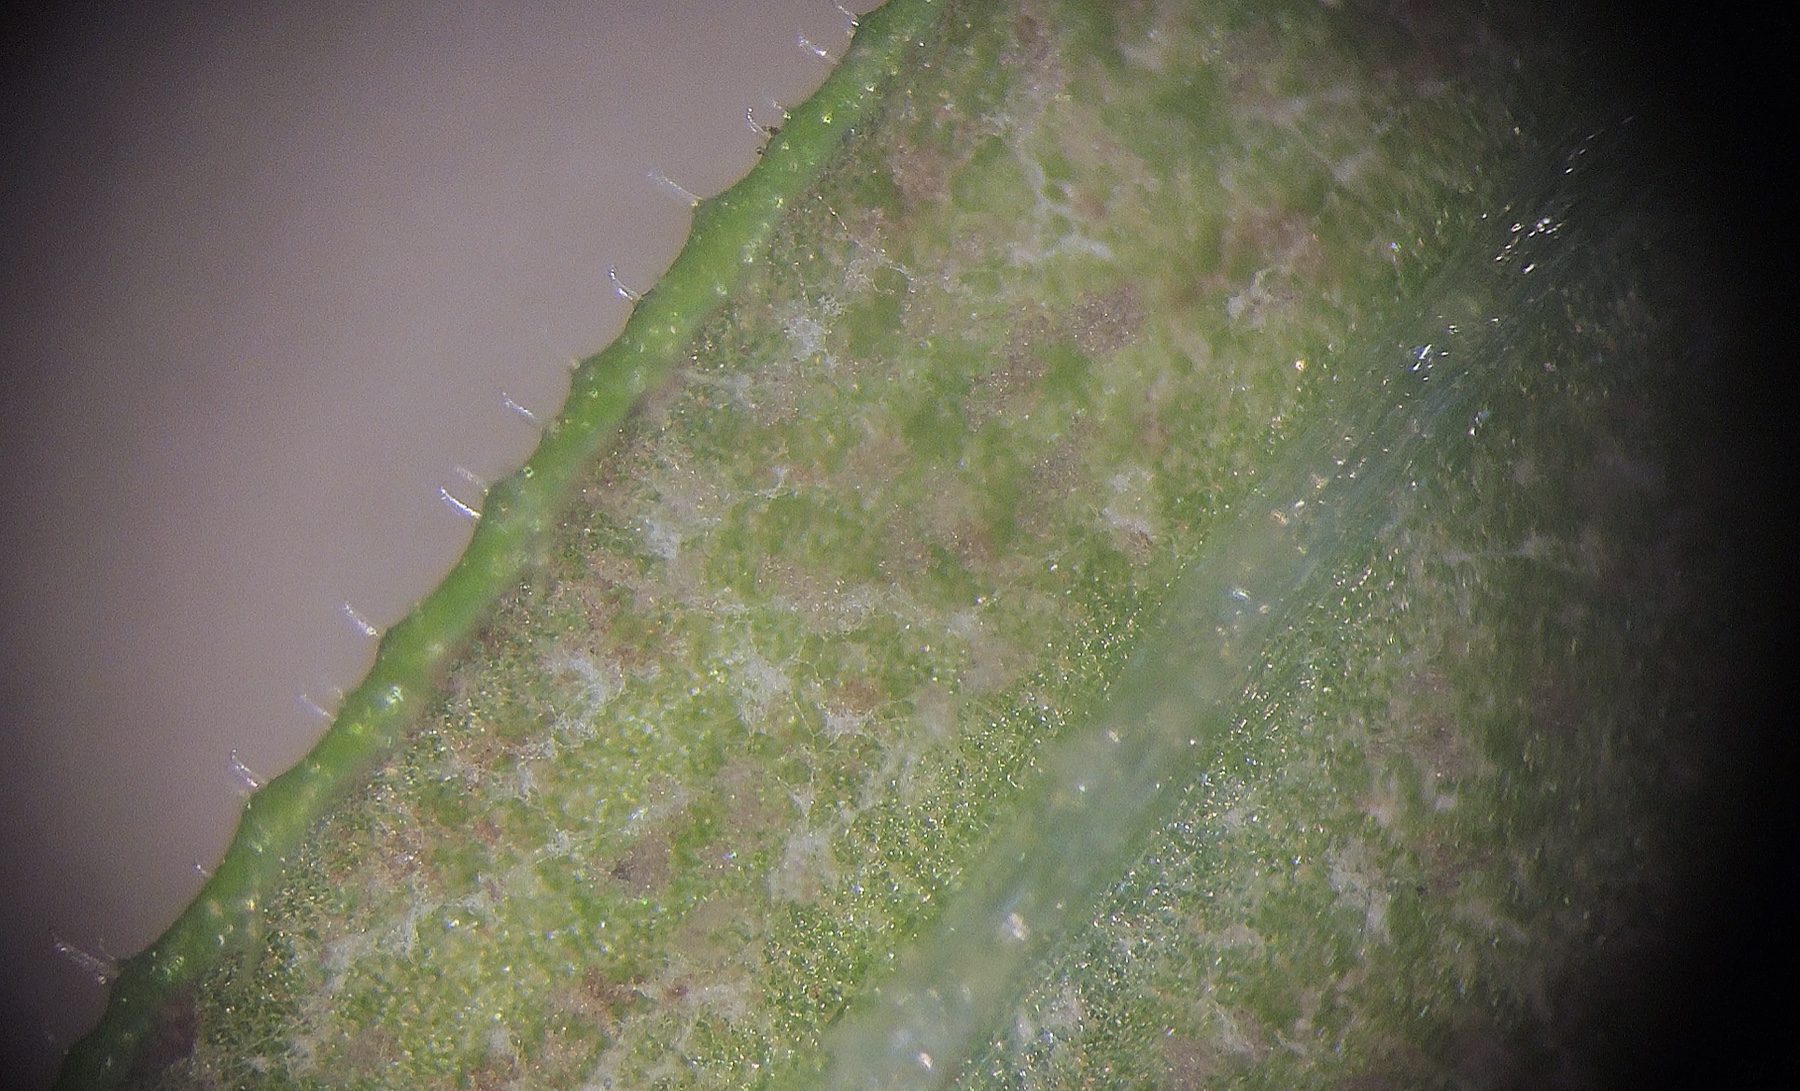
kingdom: Chromista
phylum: Oomycota
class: Peronosporea
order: Peronosporales
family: Peronosporaceae
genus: Peronospora
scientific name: Peronospora aparines
